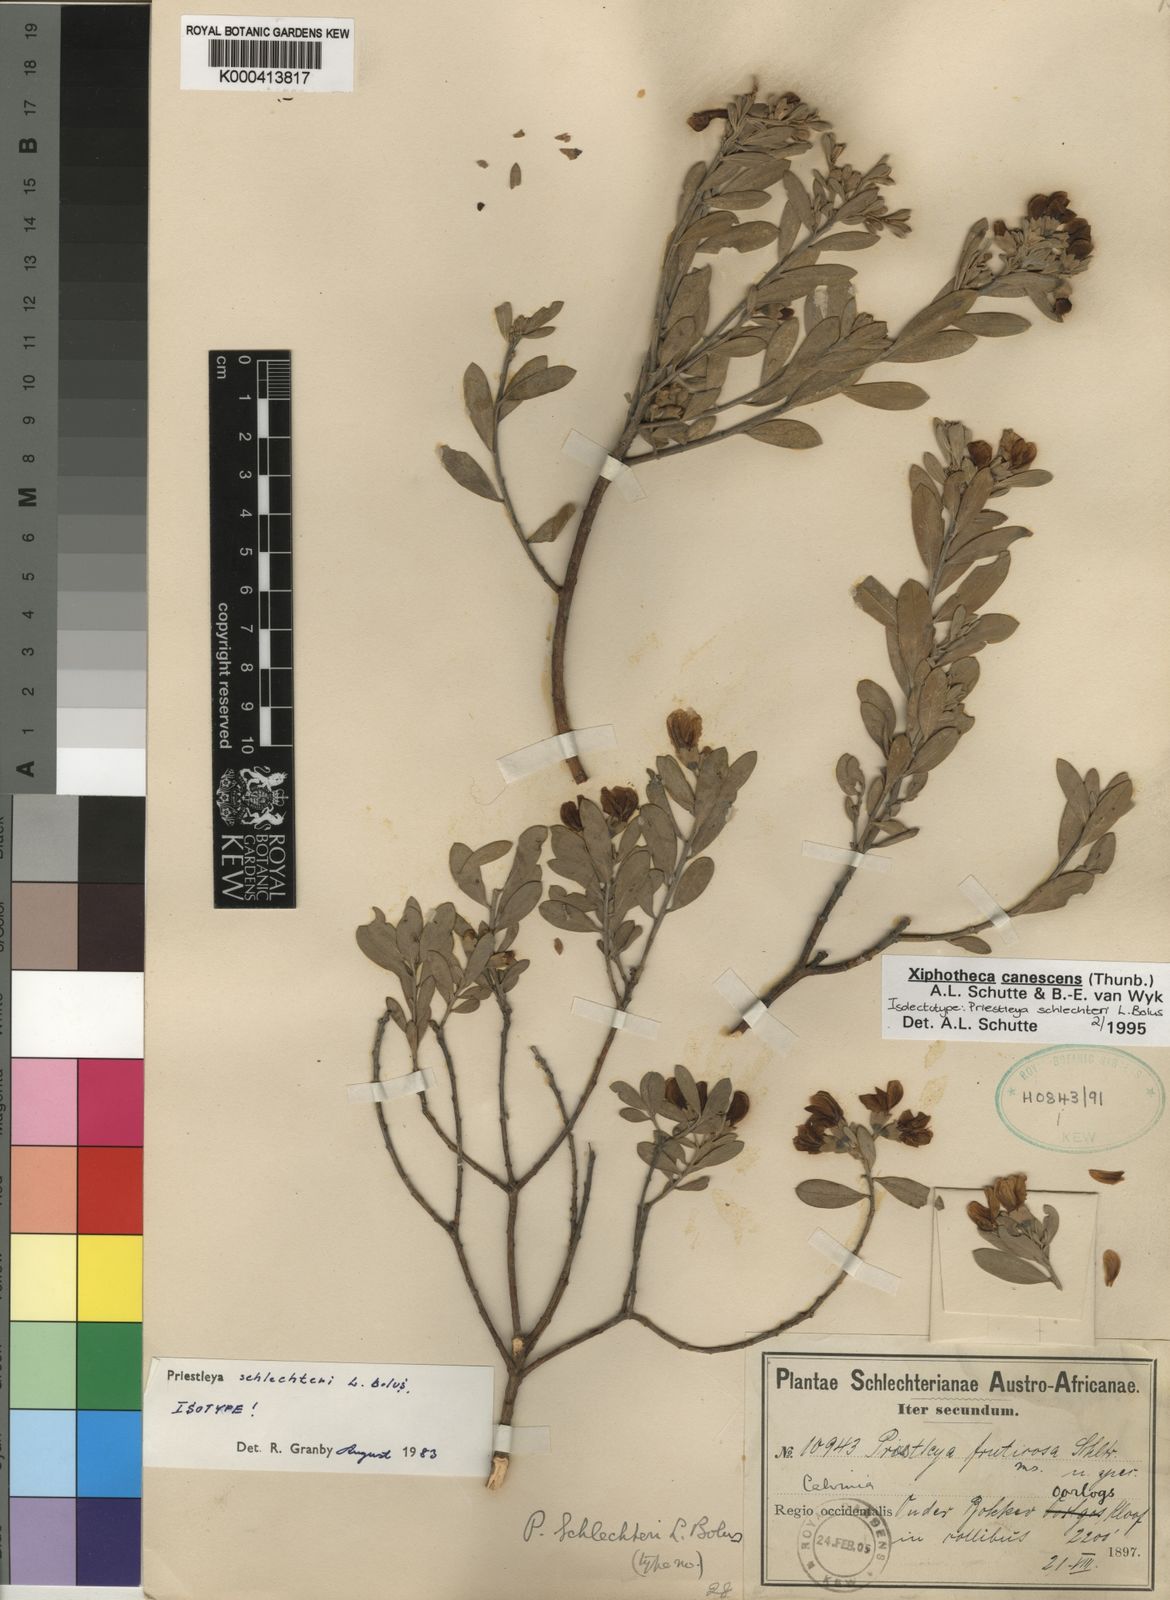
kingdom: Plantae
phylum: Tracheophyta
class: Magnoliopsida
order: Fabales
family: Fabaceae
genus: Xiphotheca
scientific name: Xiphotheca canescens
